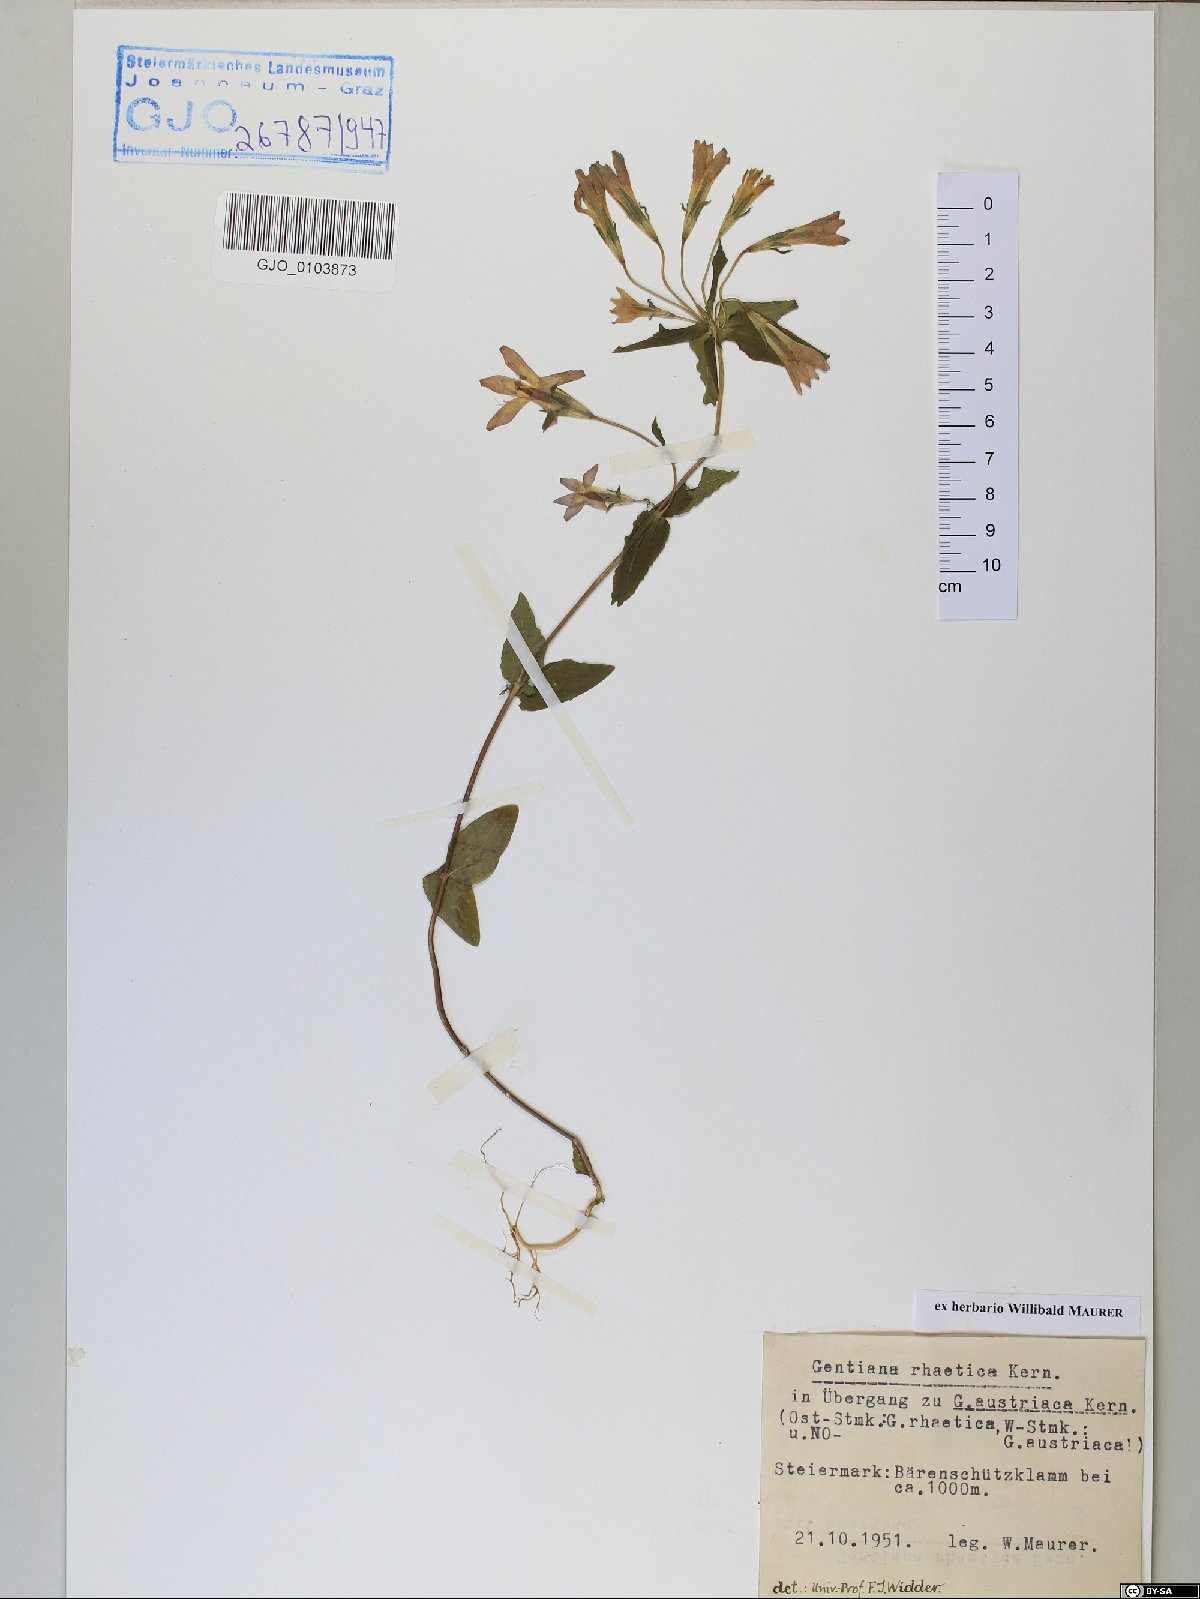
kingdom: Plantae
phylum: Tracheophyta
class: Magnoliopsida
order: Gentianales
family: Gentianaceae
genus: Gentianella
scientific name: Gentianella rhaetica
